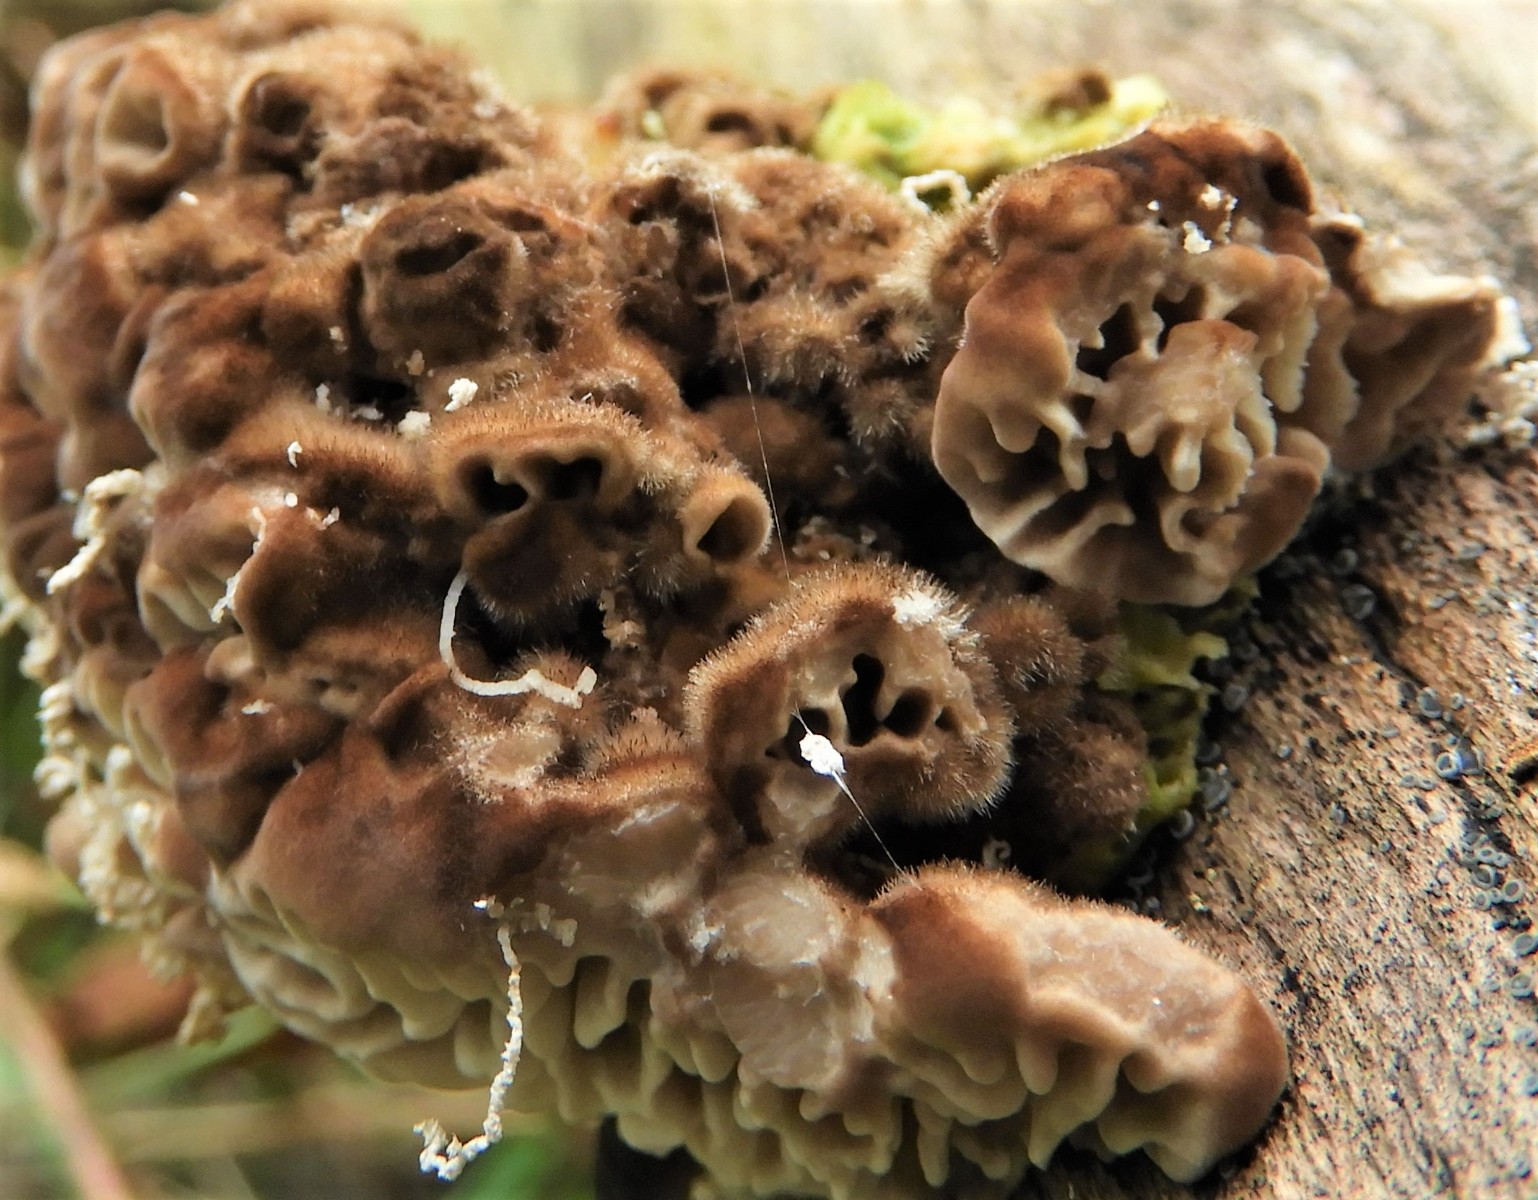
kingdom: Fungi
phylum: Basidiomycota
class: Agaricomycetes
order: Polyporales
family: Polyporaceae
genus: Lenzites
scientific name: Lenzites betulinus
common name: birke-læderporesvamp
